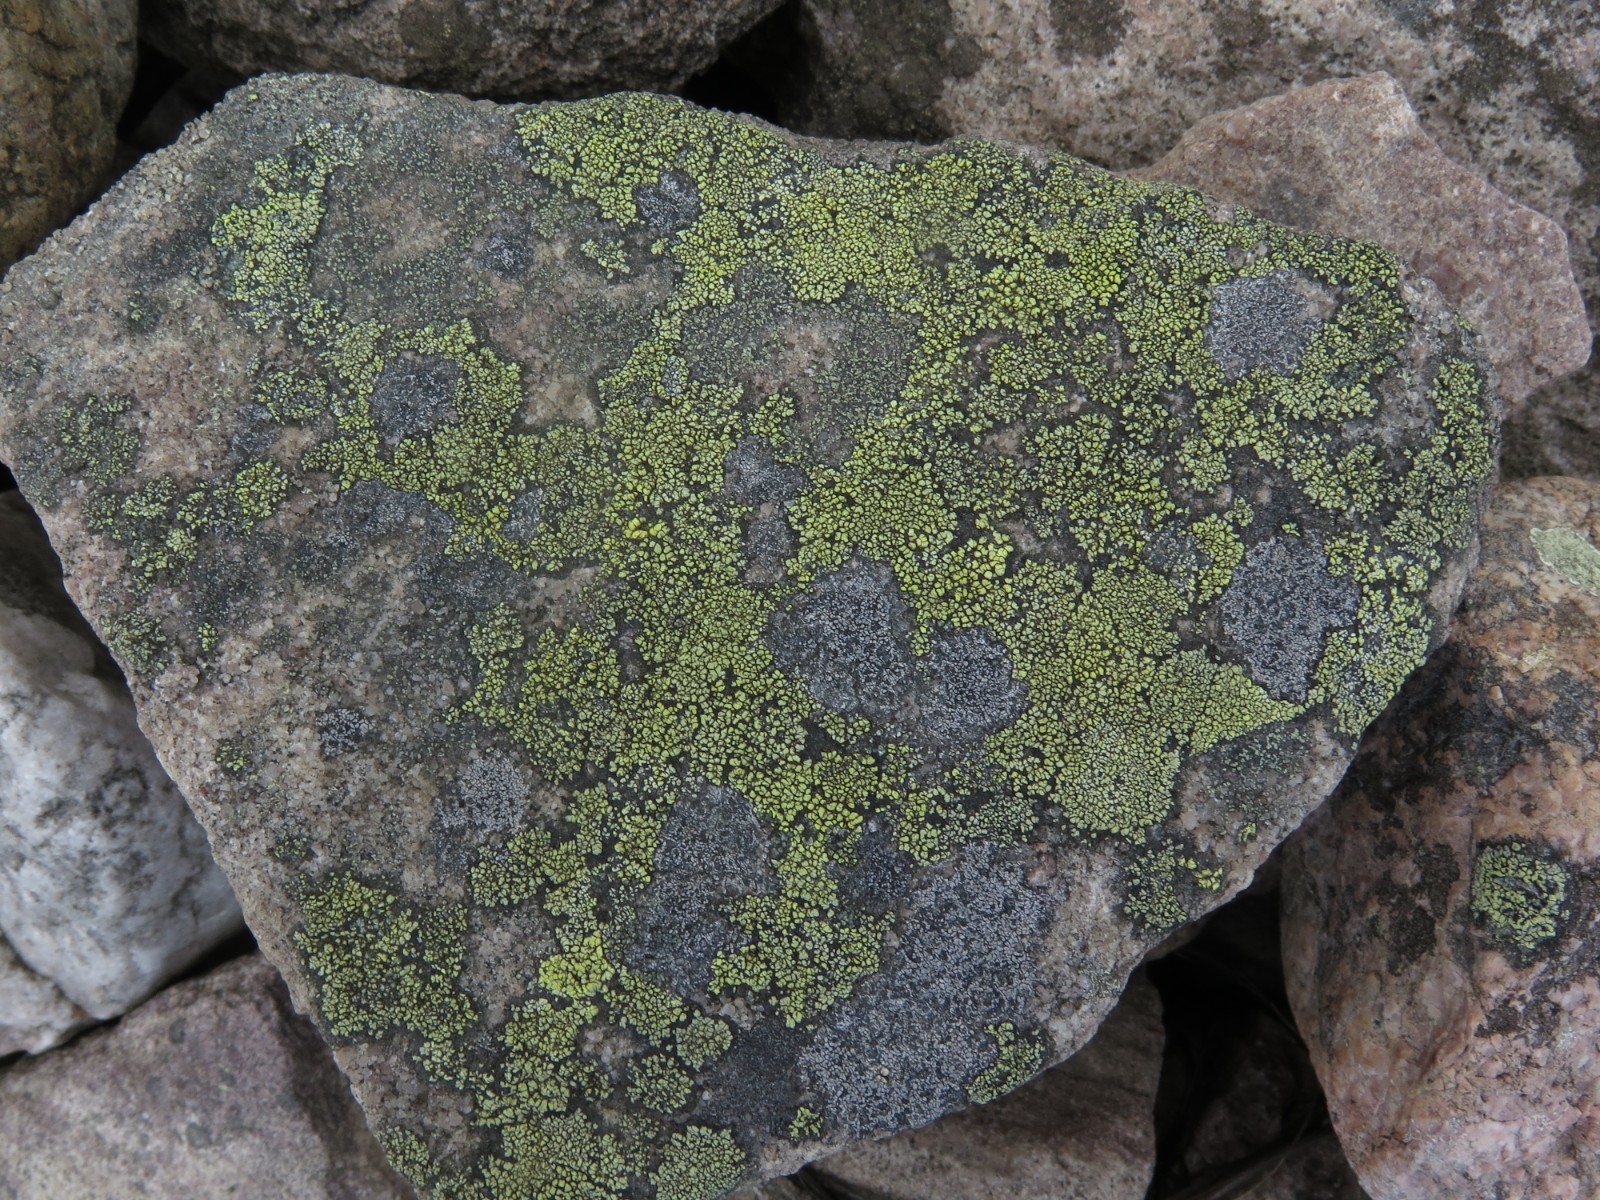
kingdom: Fungi
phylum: Ascomycota
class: Lecanoromycetes
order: Rhizocarpales
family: Rhizocarpaceae
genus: Rhizocarpon
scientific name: Rhizocarpon geographicum
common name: gulgrøn landkortlav
